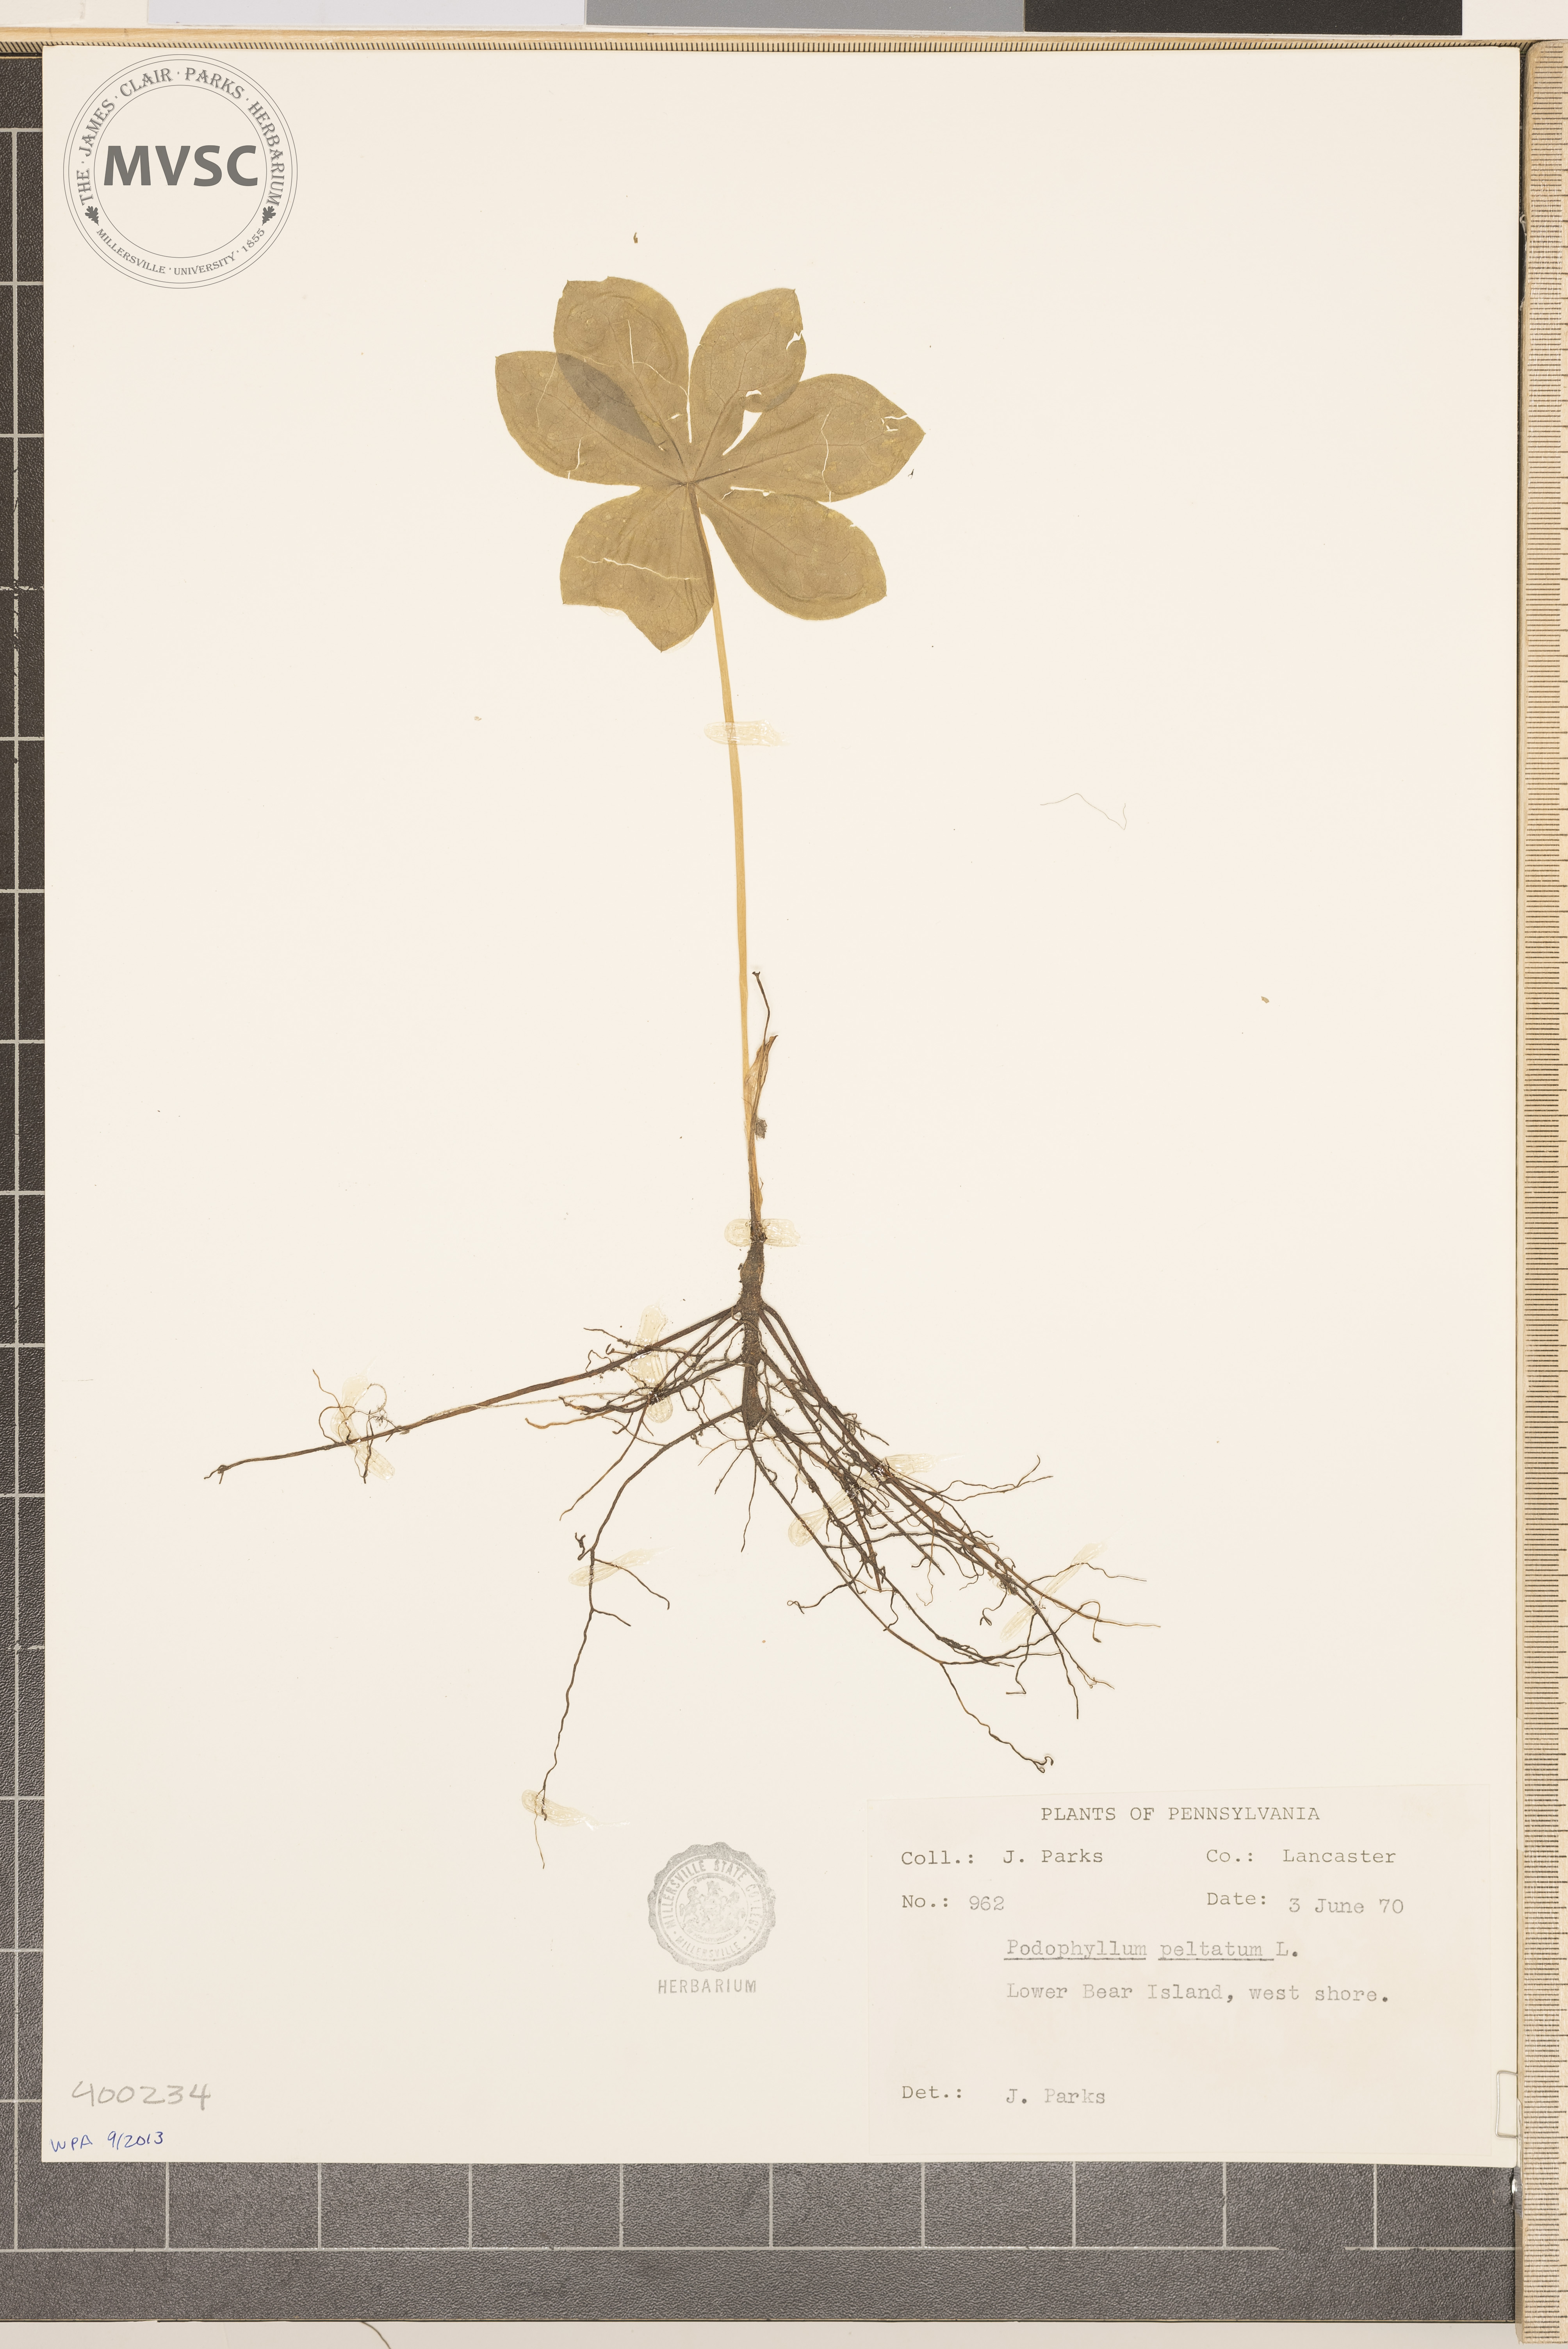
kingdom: Plantae
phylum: Tracheophyta
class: Magnoliopsida
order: Ranunculales
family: Berberidaceae
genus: Podophyllum
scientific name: Podophyllum peltatum
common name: May-apple
